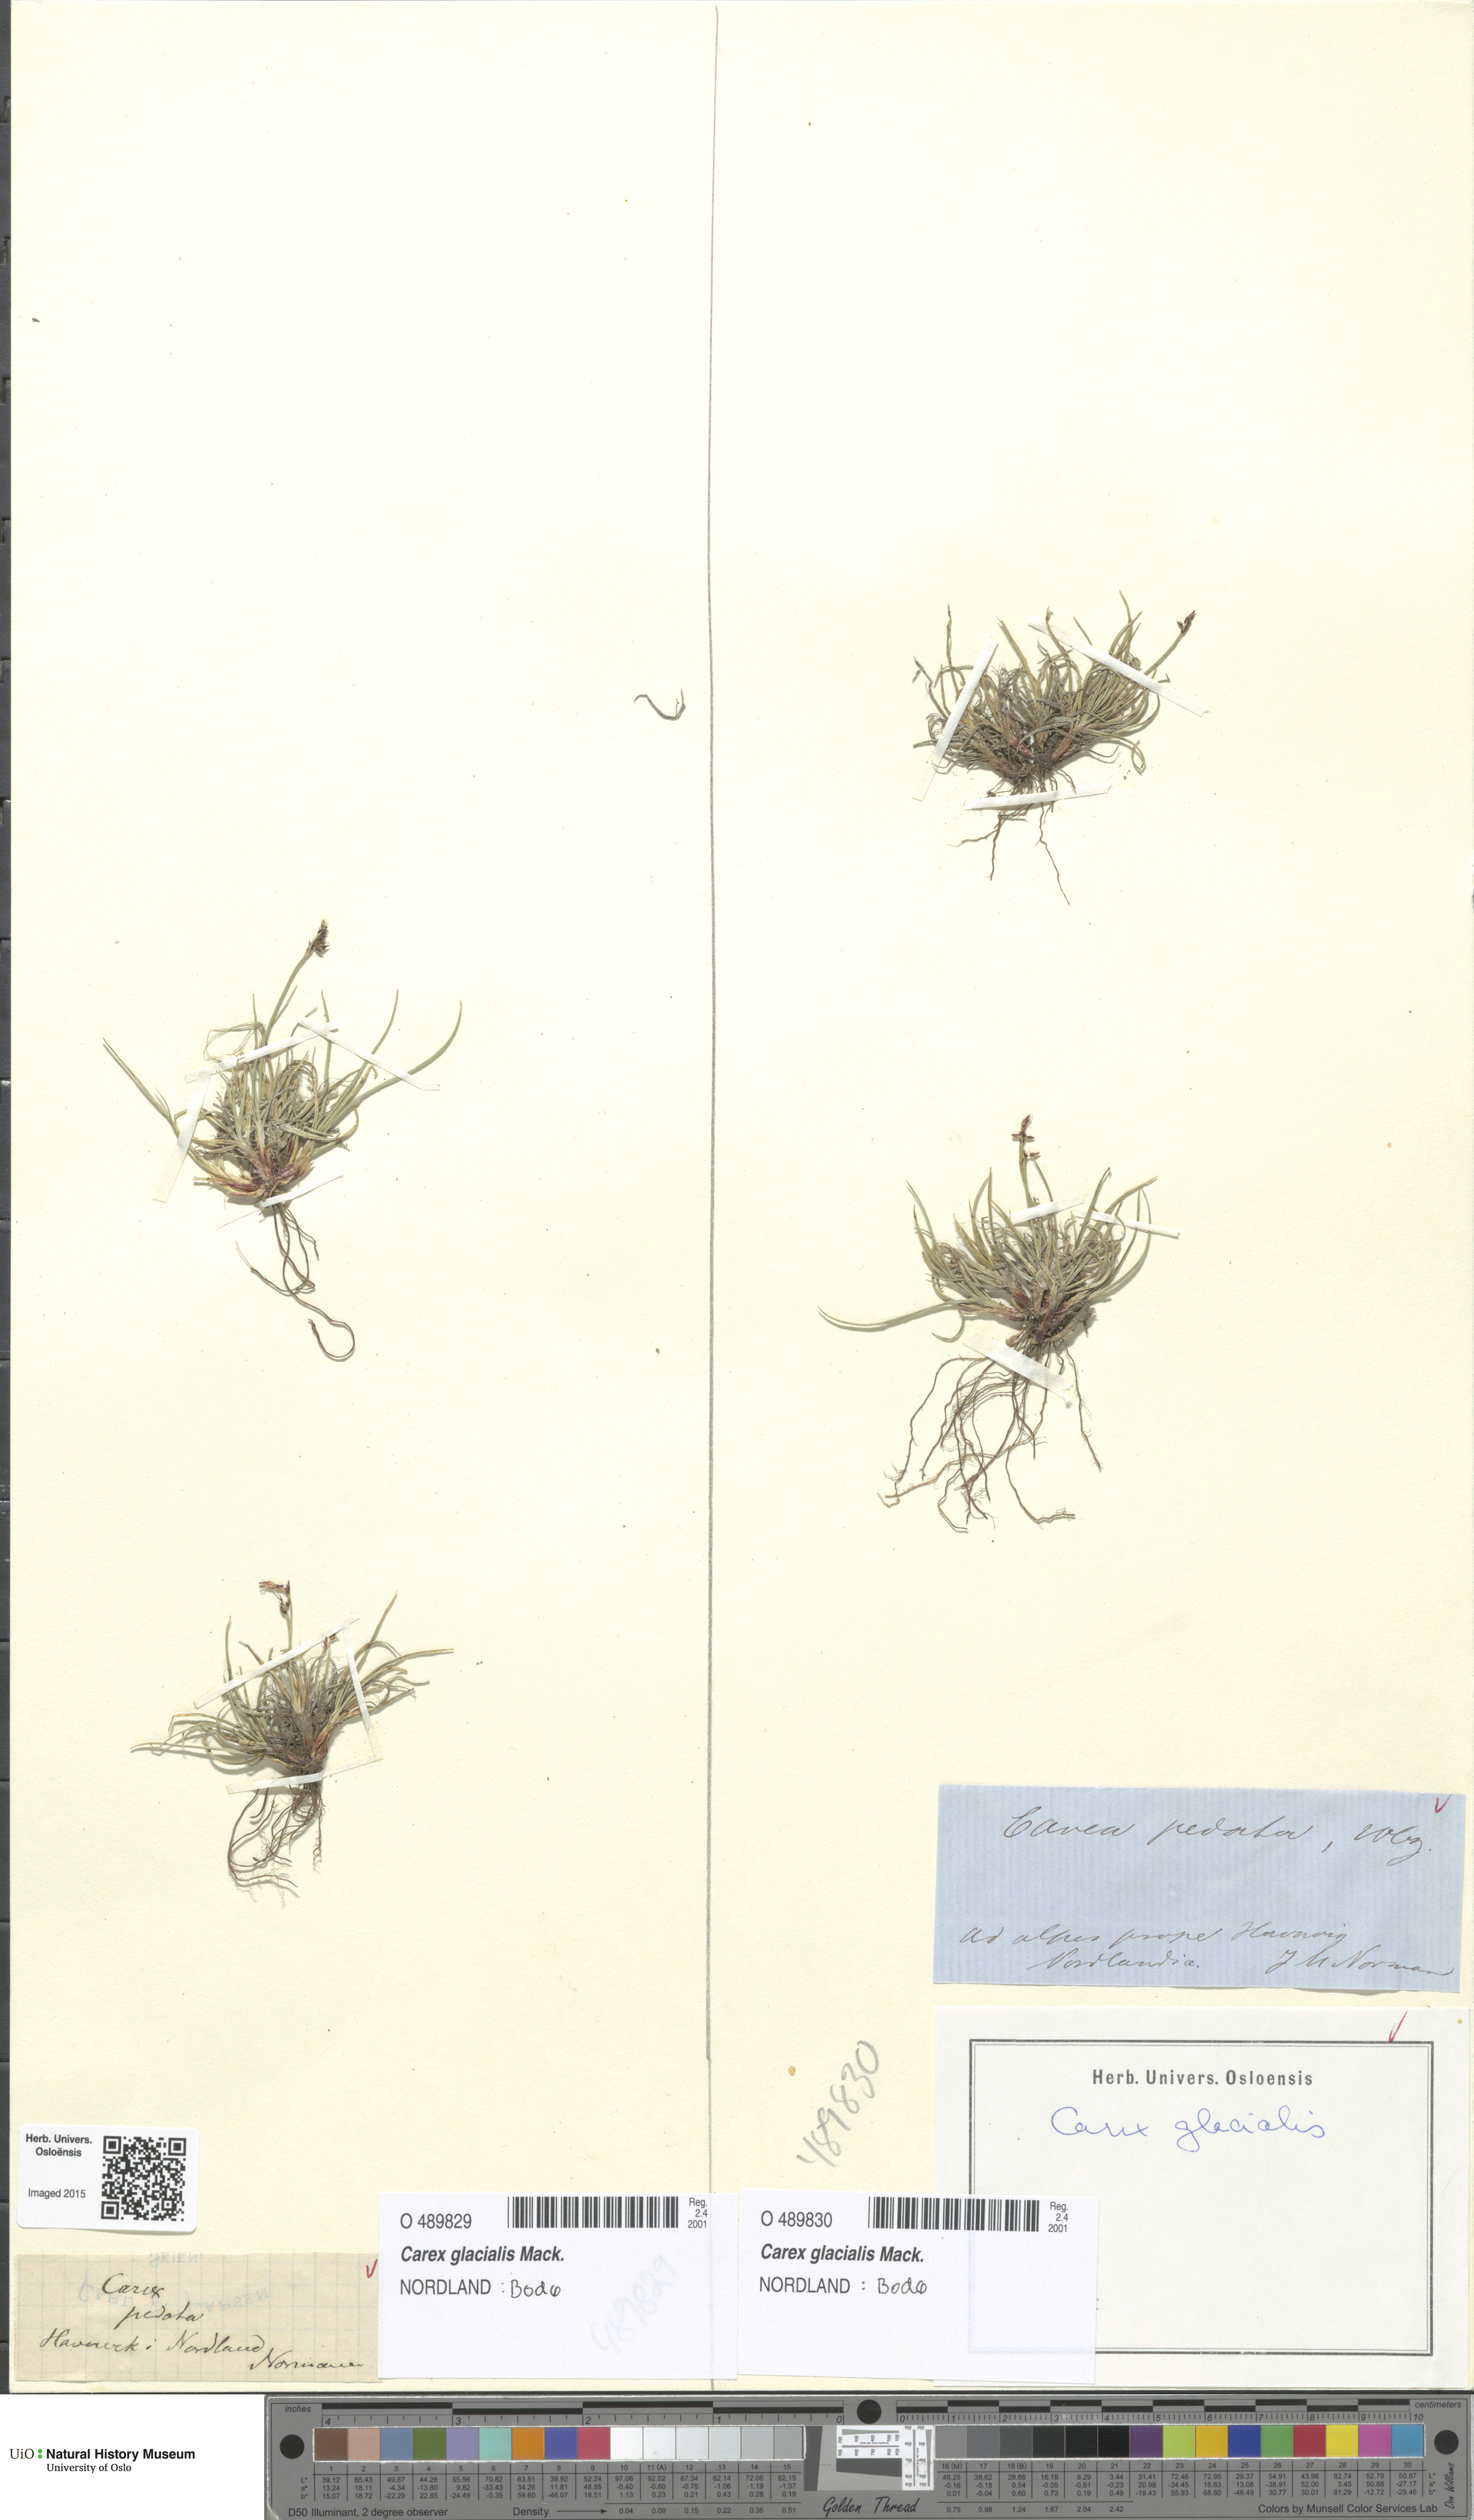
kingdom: Plantae
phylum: Tracheophyta
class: Liliopsida
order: Poales
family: Cyperaceae
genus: Carex
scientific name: Carex glacialis
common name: Newfoundland sedge
